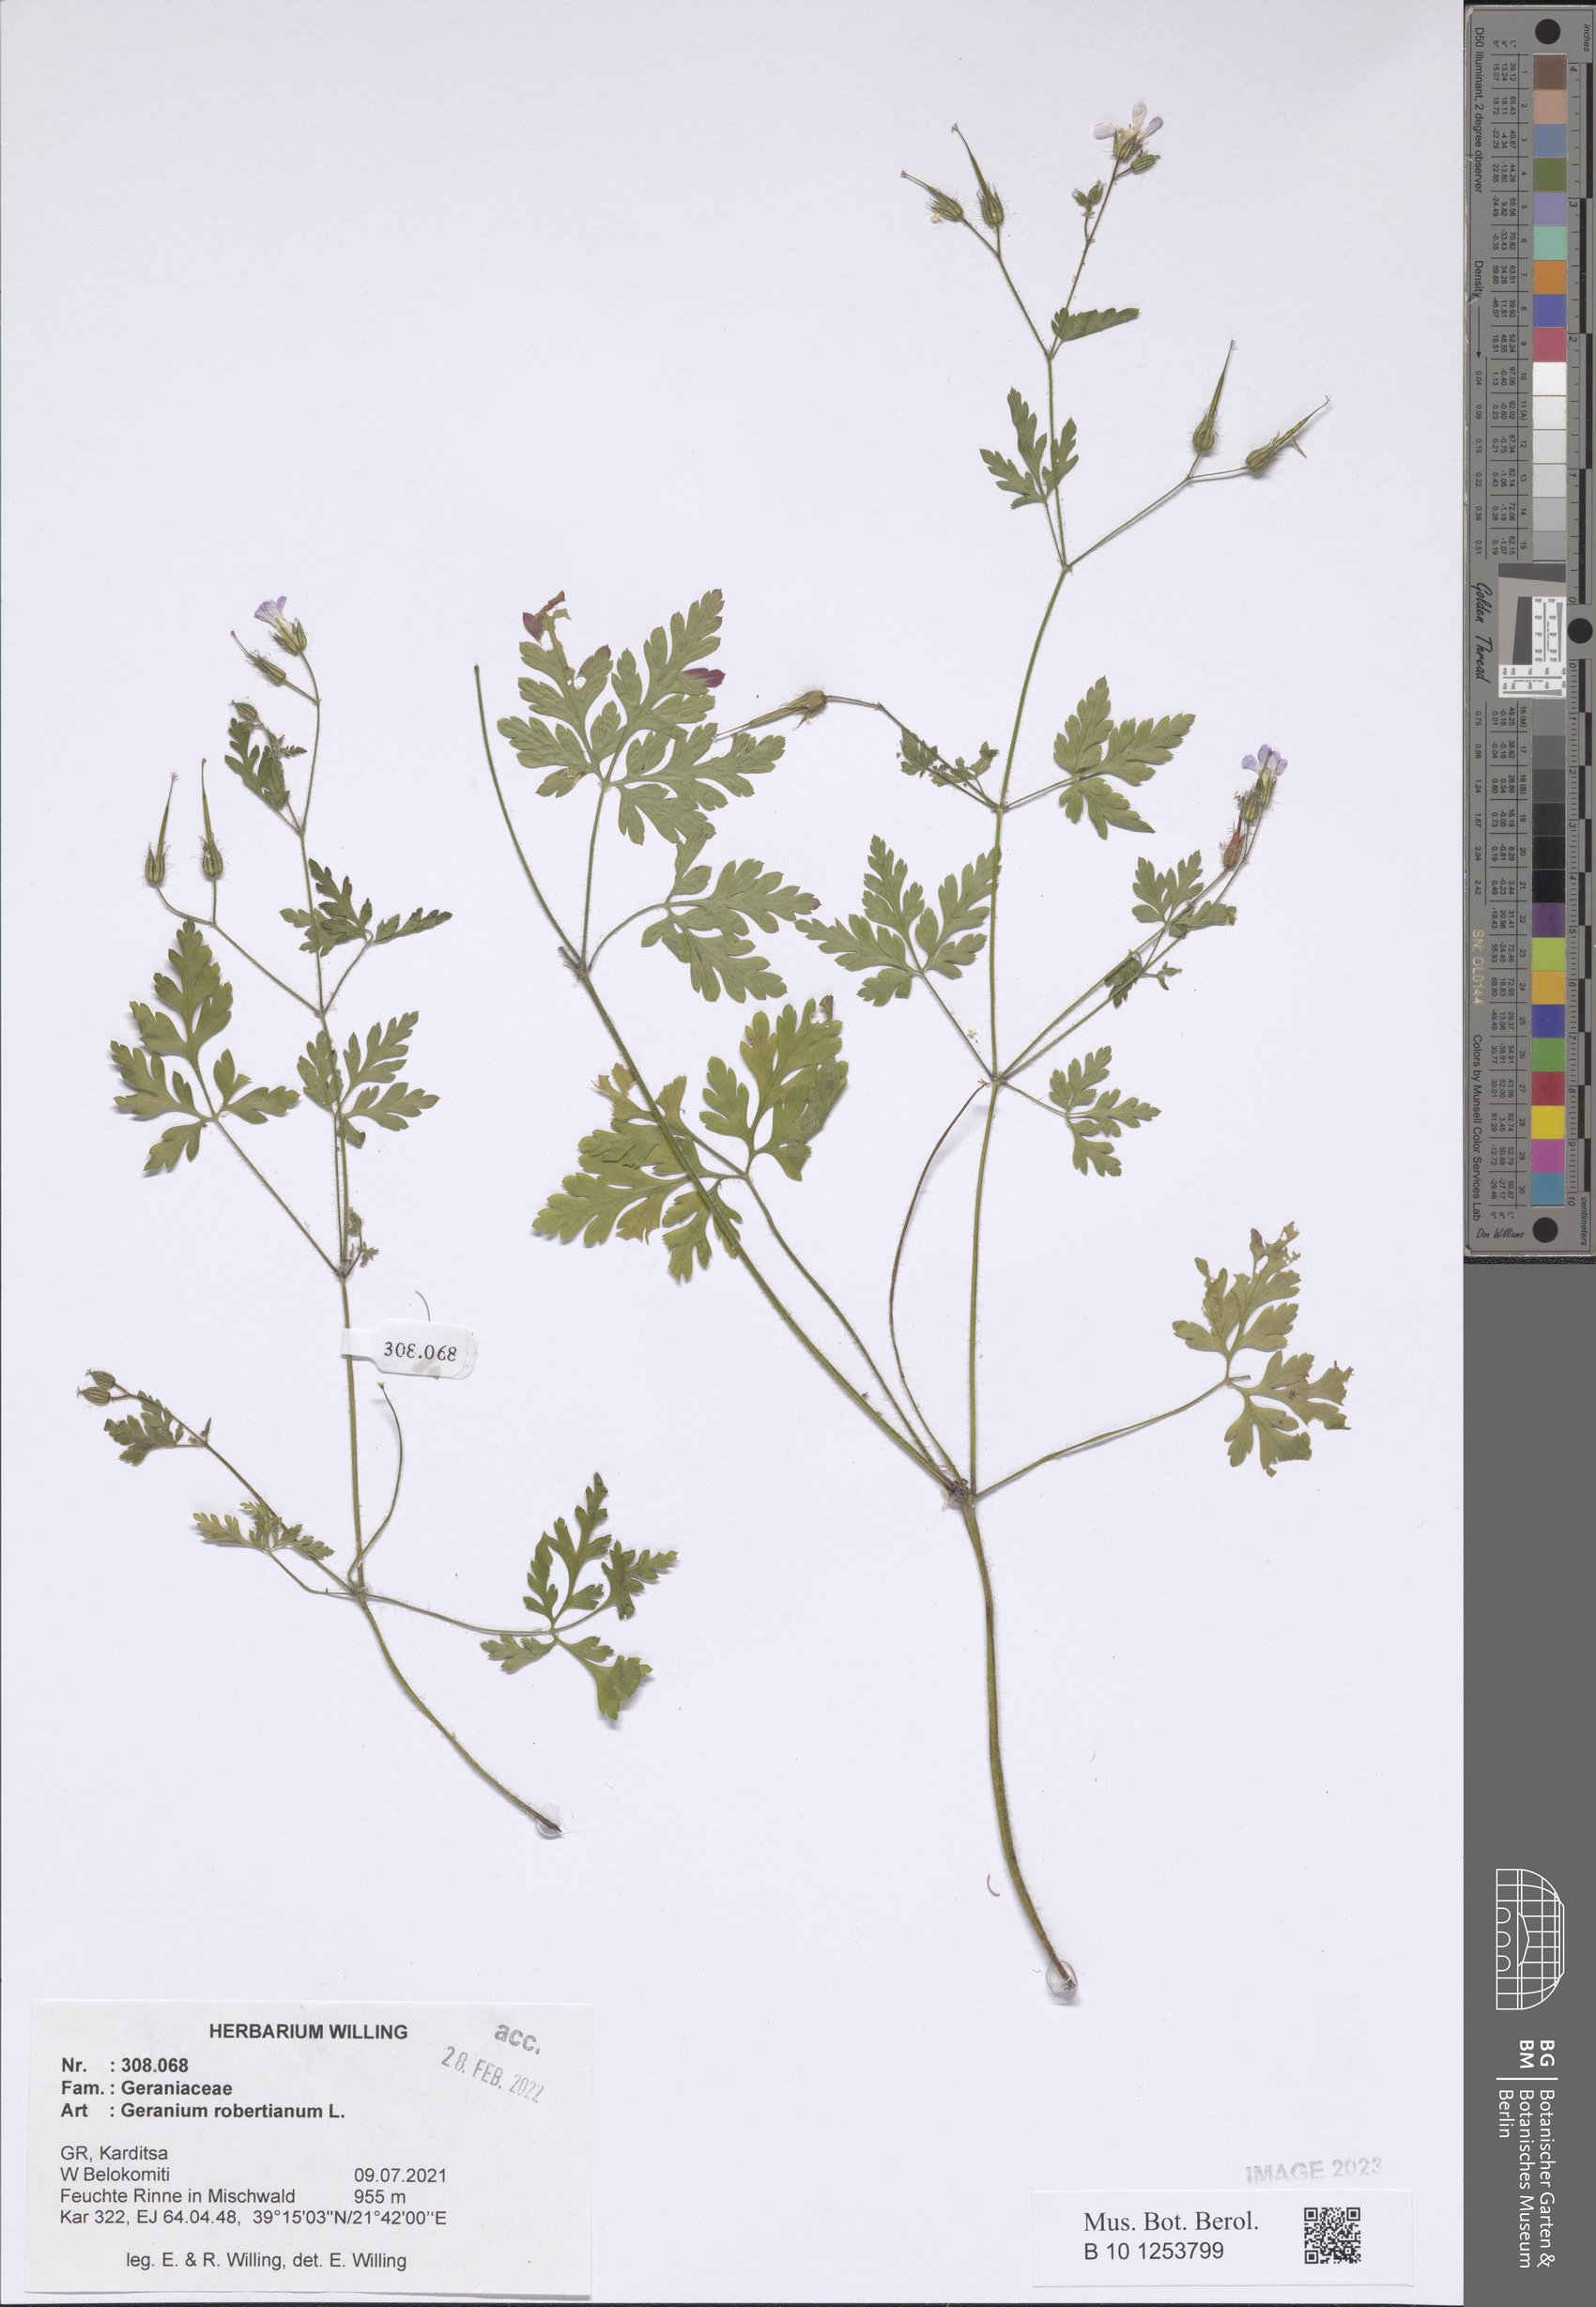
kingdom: Plantae
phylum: Tracheophyta
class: Magnoliopsida
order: Geraniales
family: Geraniaceae
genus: Geranium
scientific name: Geranium robertianum
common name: Herb-robert
